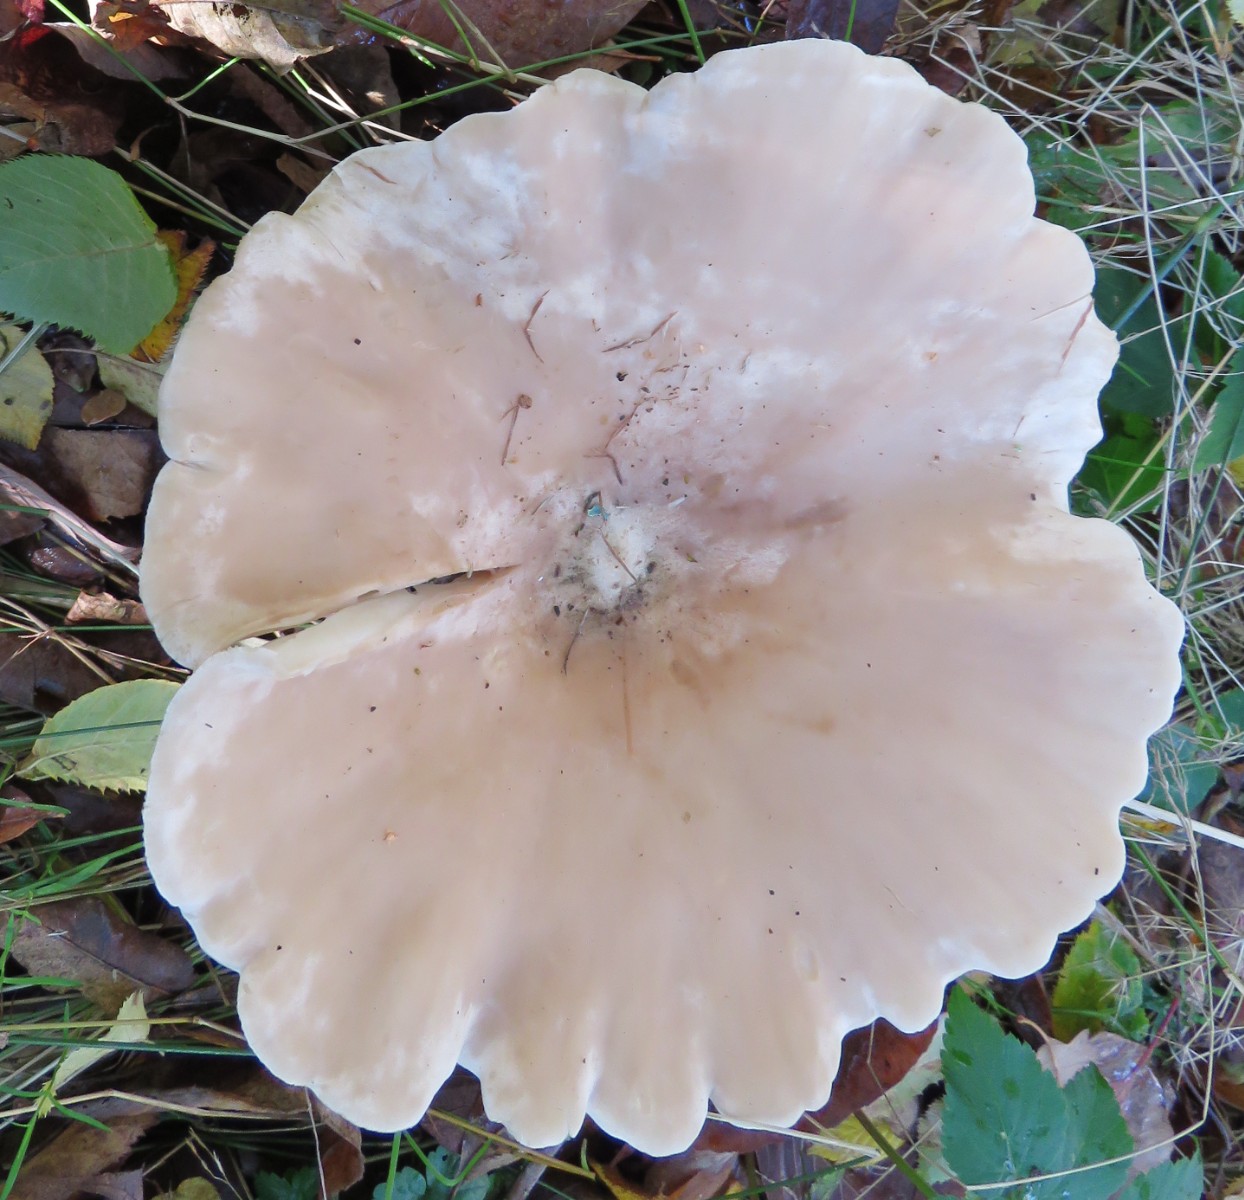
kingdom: Fungi
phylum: Basidiomycota
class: Agaricomycetes
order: Agaricales
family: Tricholomataceae
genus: Infundibulicybe
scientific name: Infundibulicybe geotropa
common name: stor tragthat
